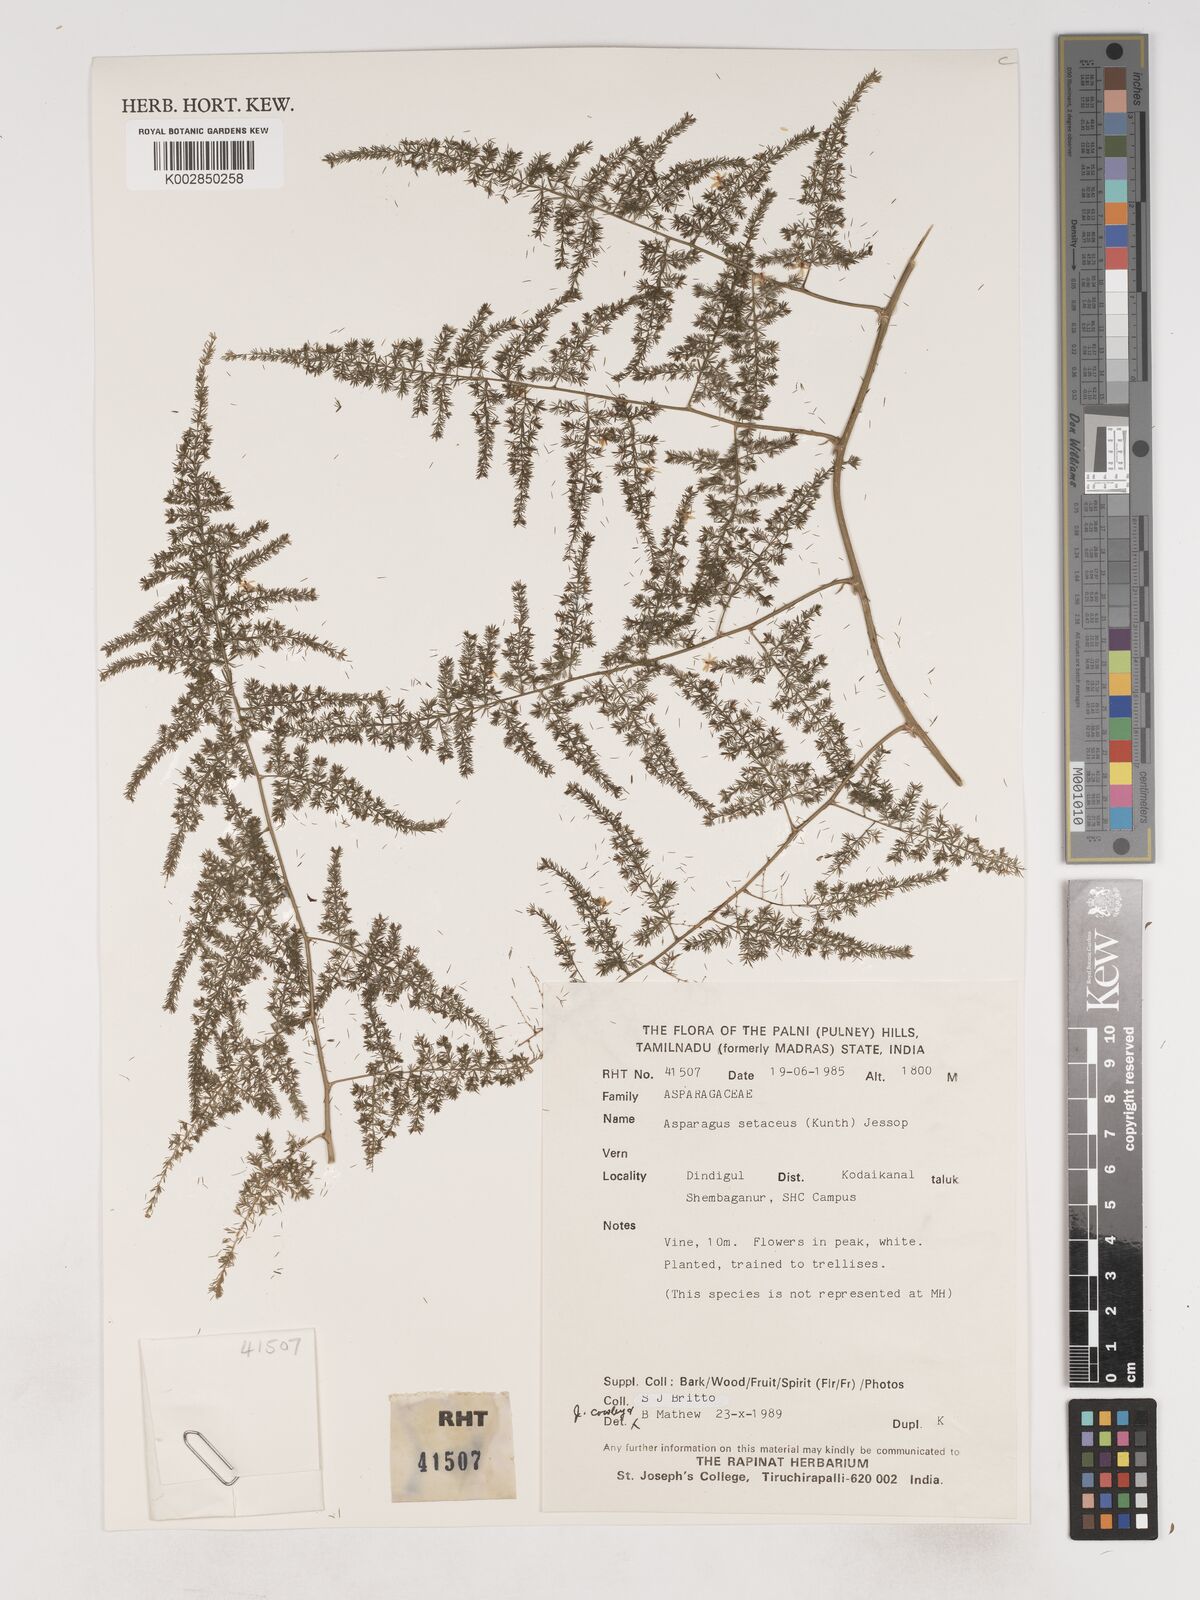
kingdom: Plantae
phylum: Tracheophyta
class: Liliopsida
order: Asparagales
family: Asparagaceae
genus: Asparagus
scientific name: Asparagus setaceus
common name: Common asparagus fern
